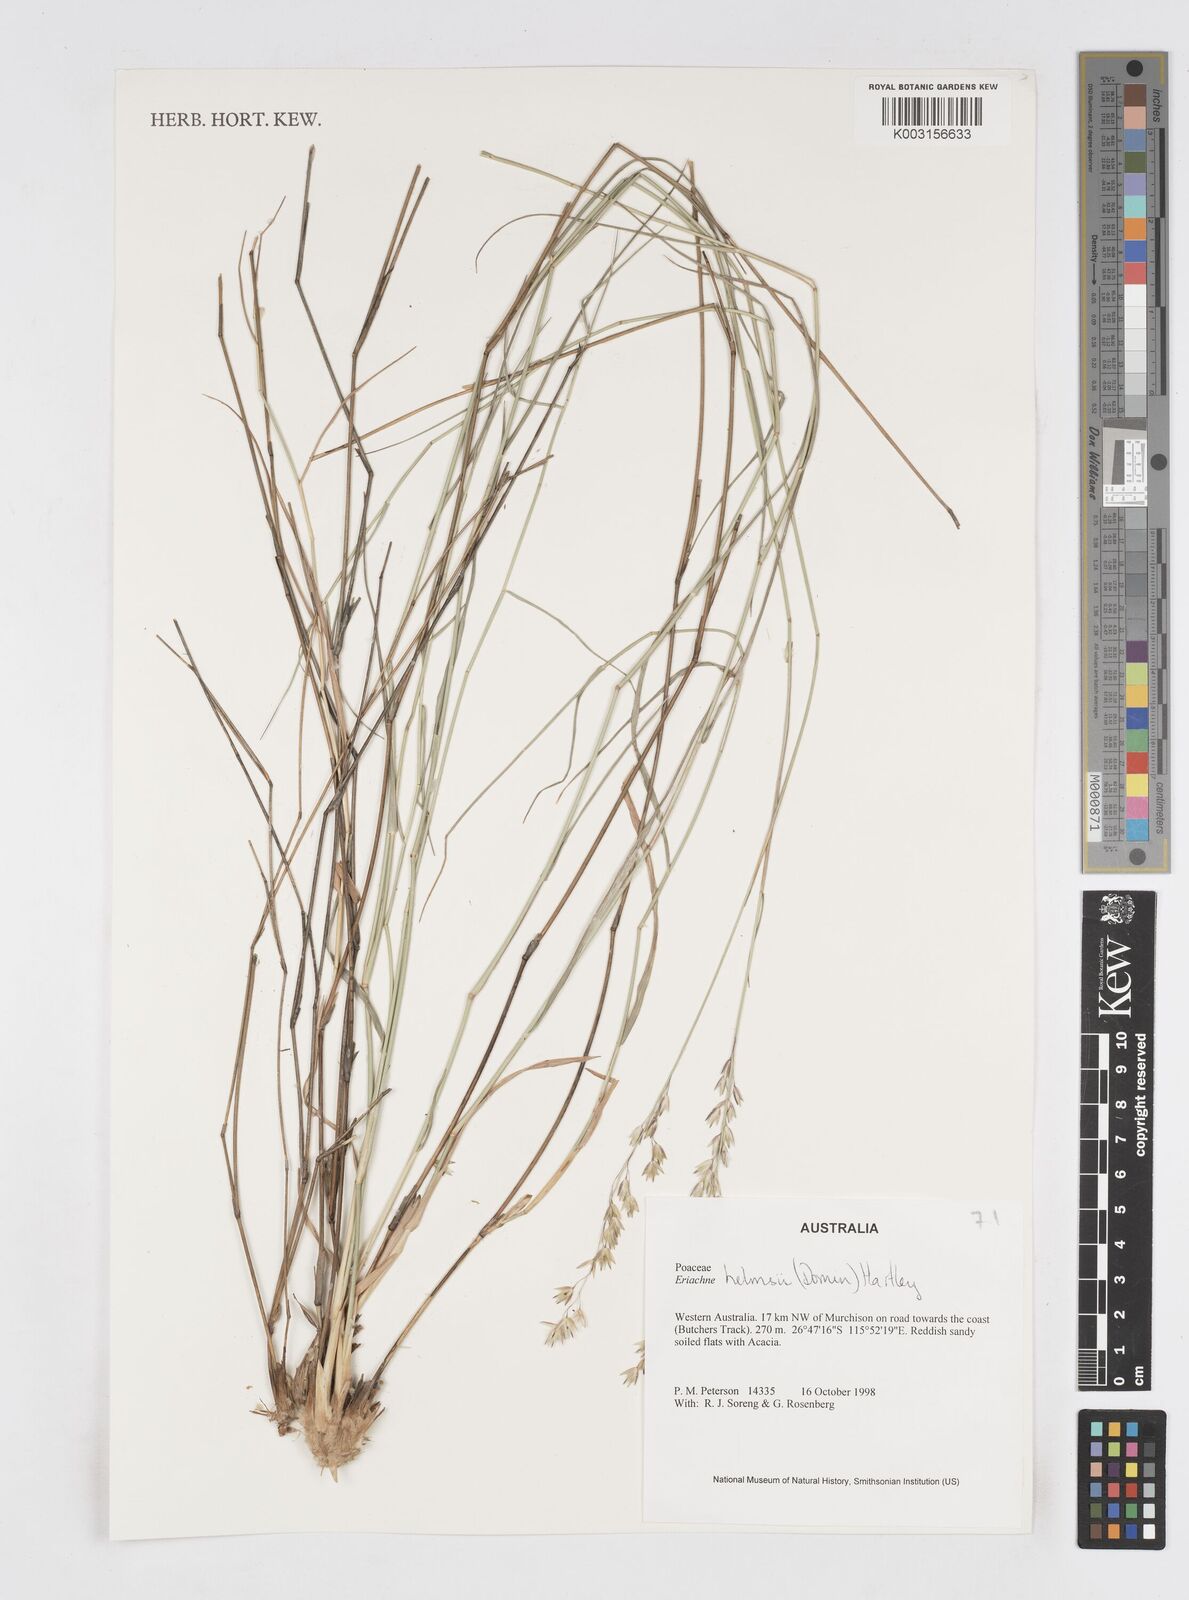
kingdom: Plantae
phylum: Tracheophyta
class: Liliopsida
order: Poales
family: Poaceae
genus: Eriachne
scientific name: Eriachne helmsii
